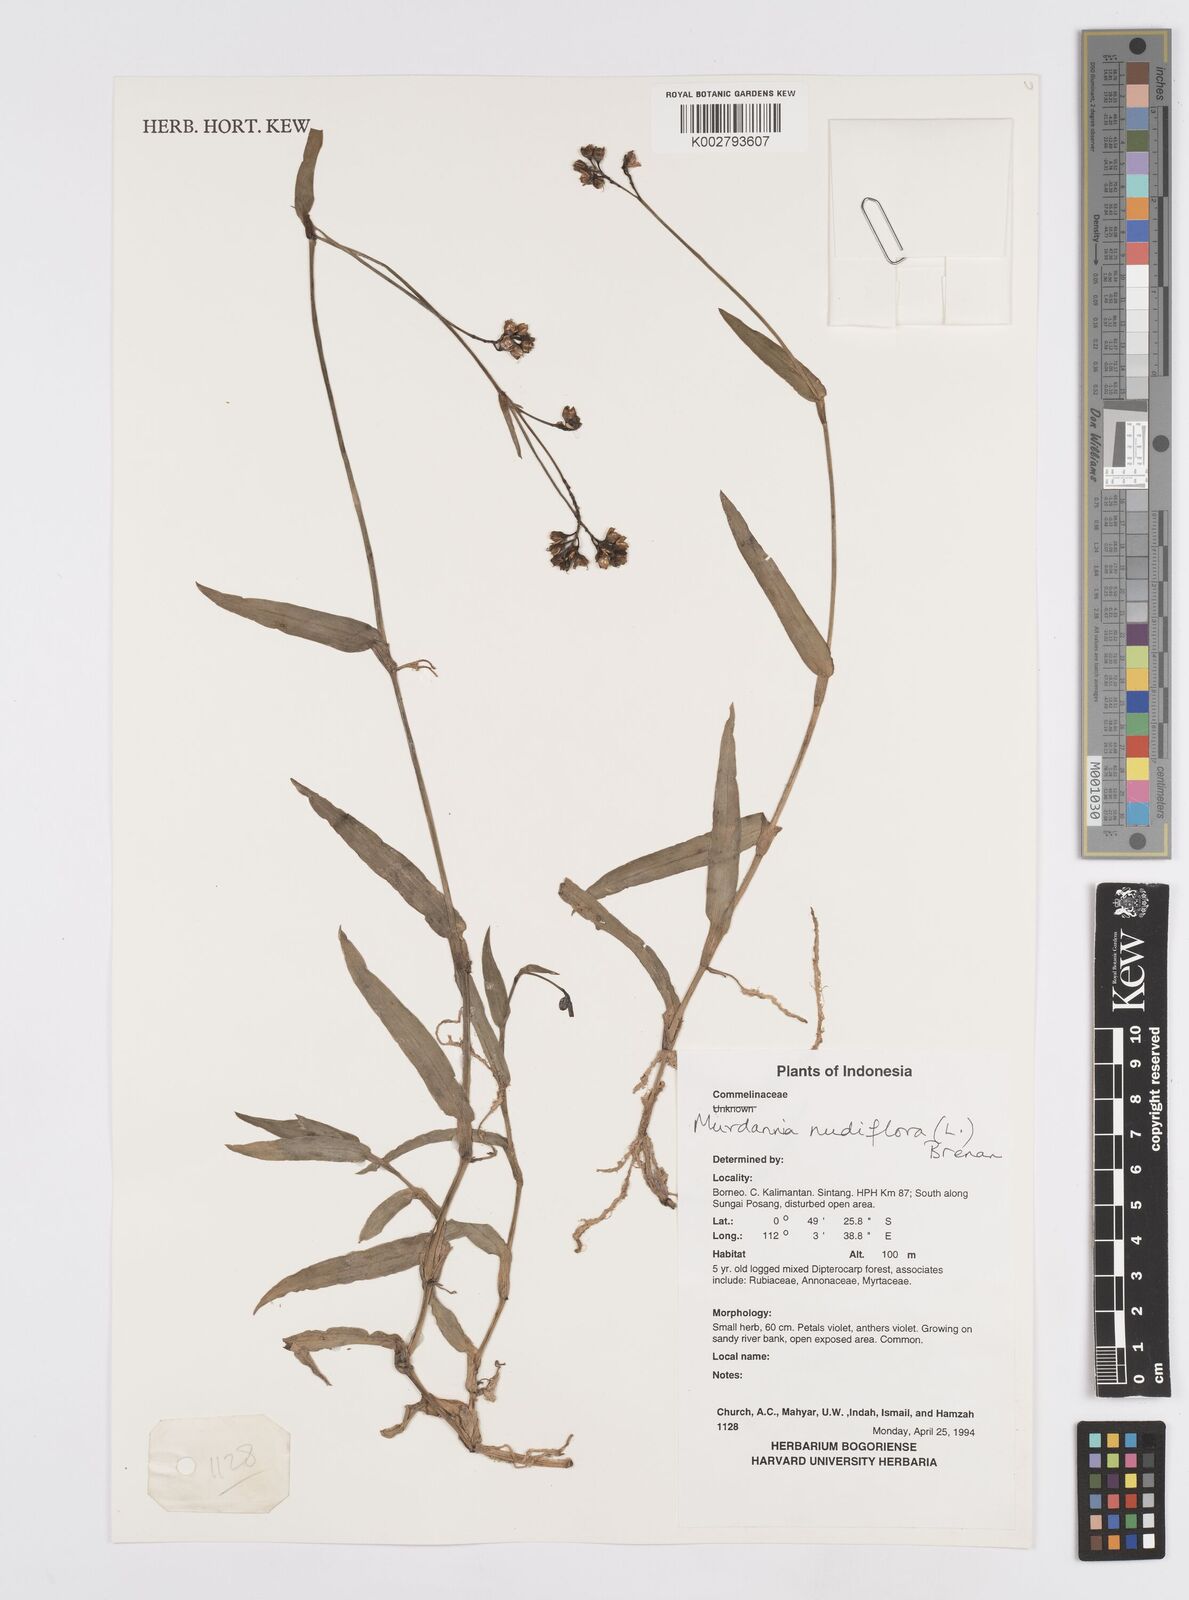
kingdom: Plantae
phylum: Tracheophyta
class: Liliopsida
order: Commelinales
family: Commelinaceae
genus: Murdannia
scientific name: Murdannia nudiflora
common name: Nakedstem dewflower
